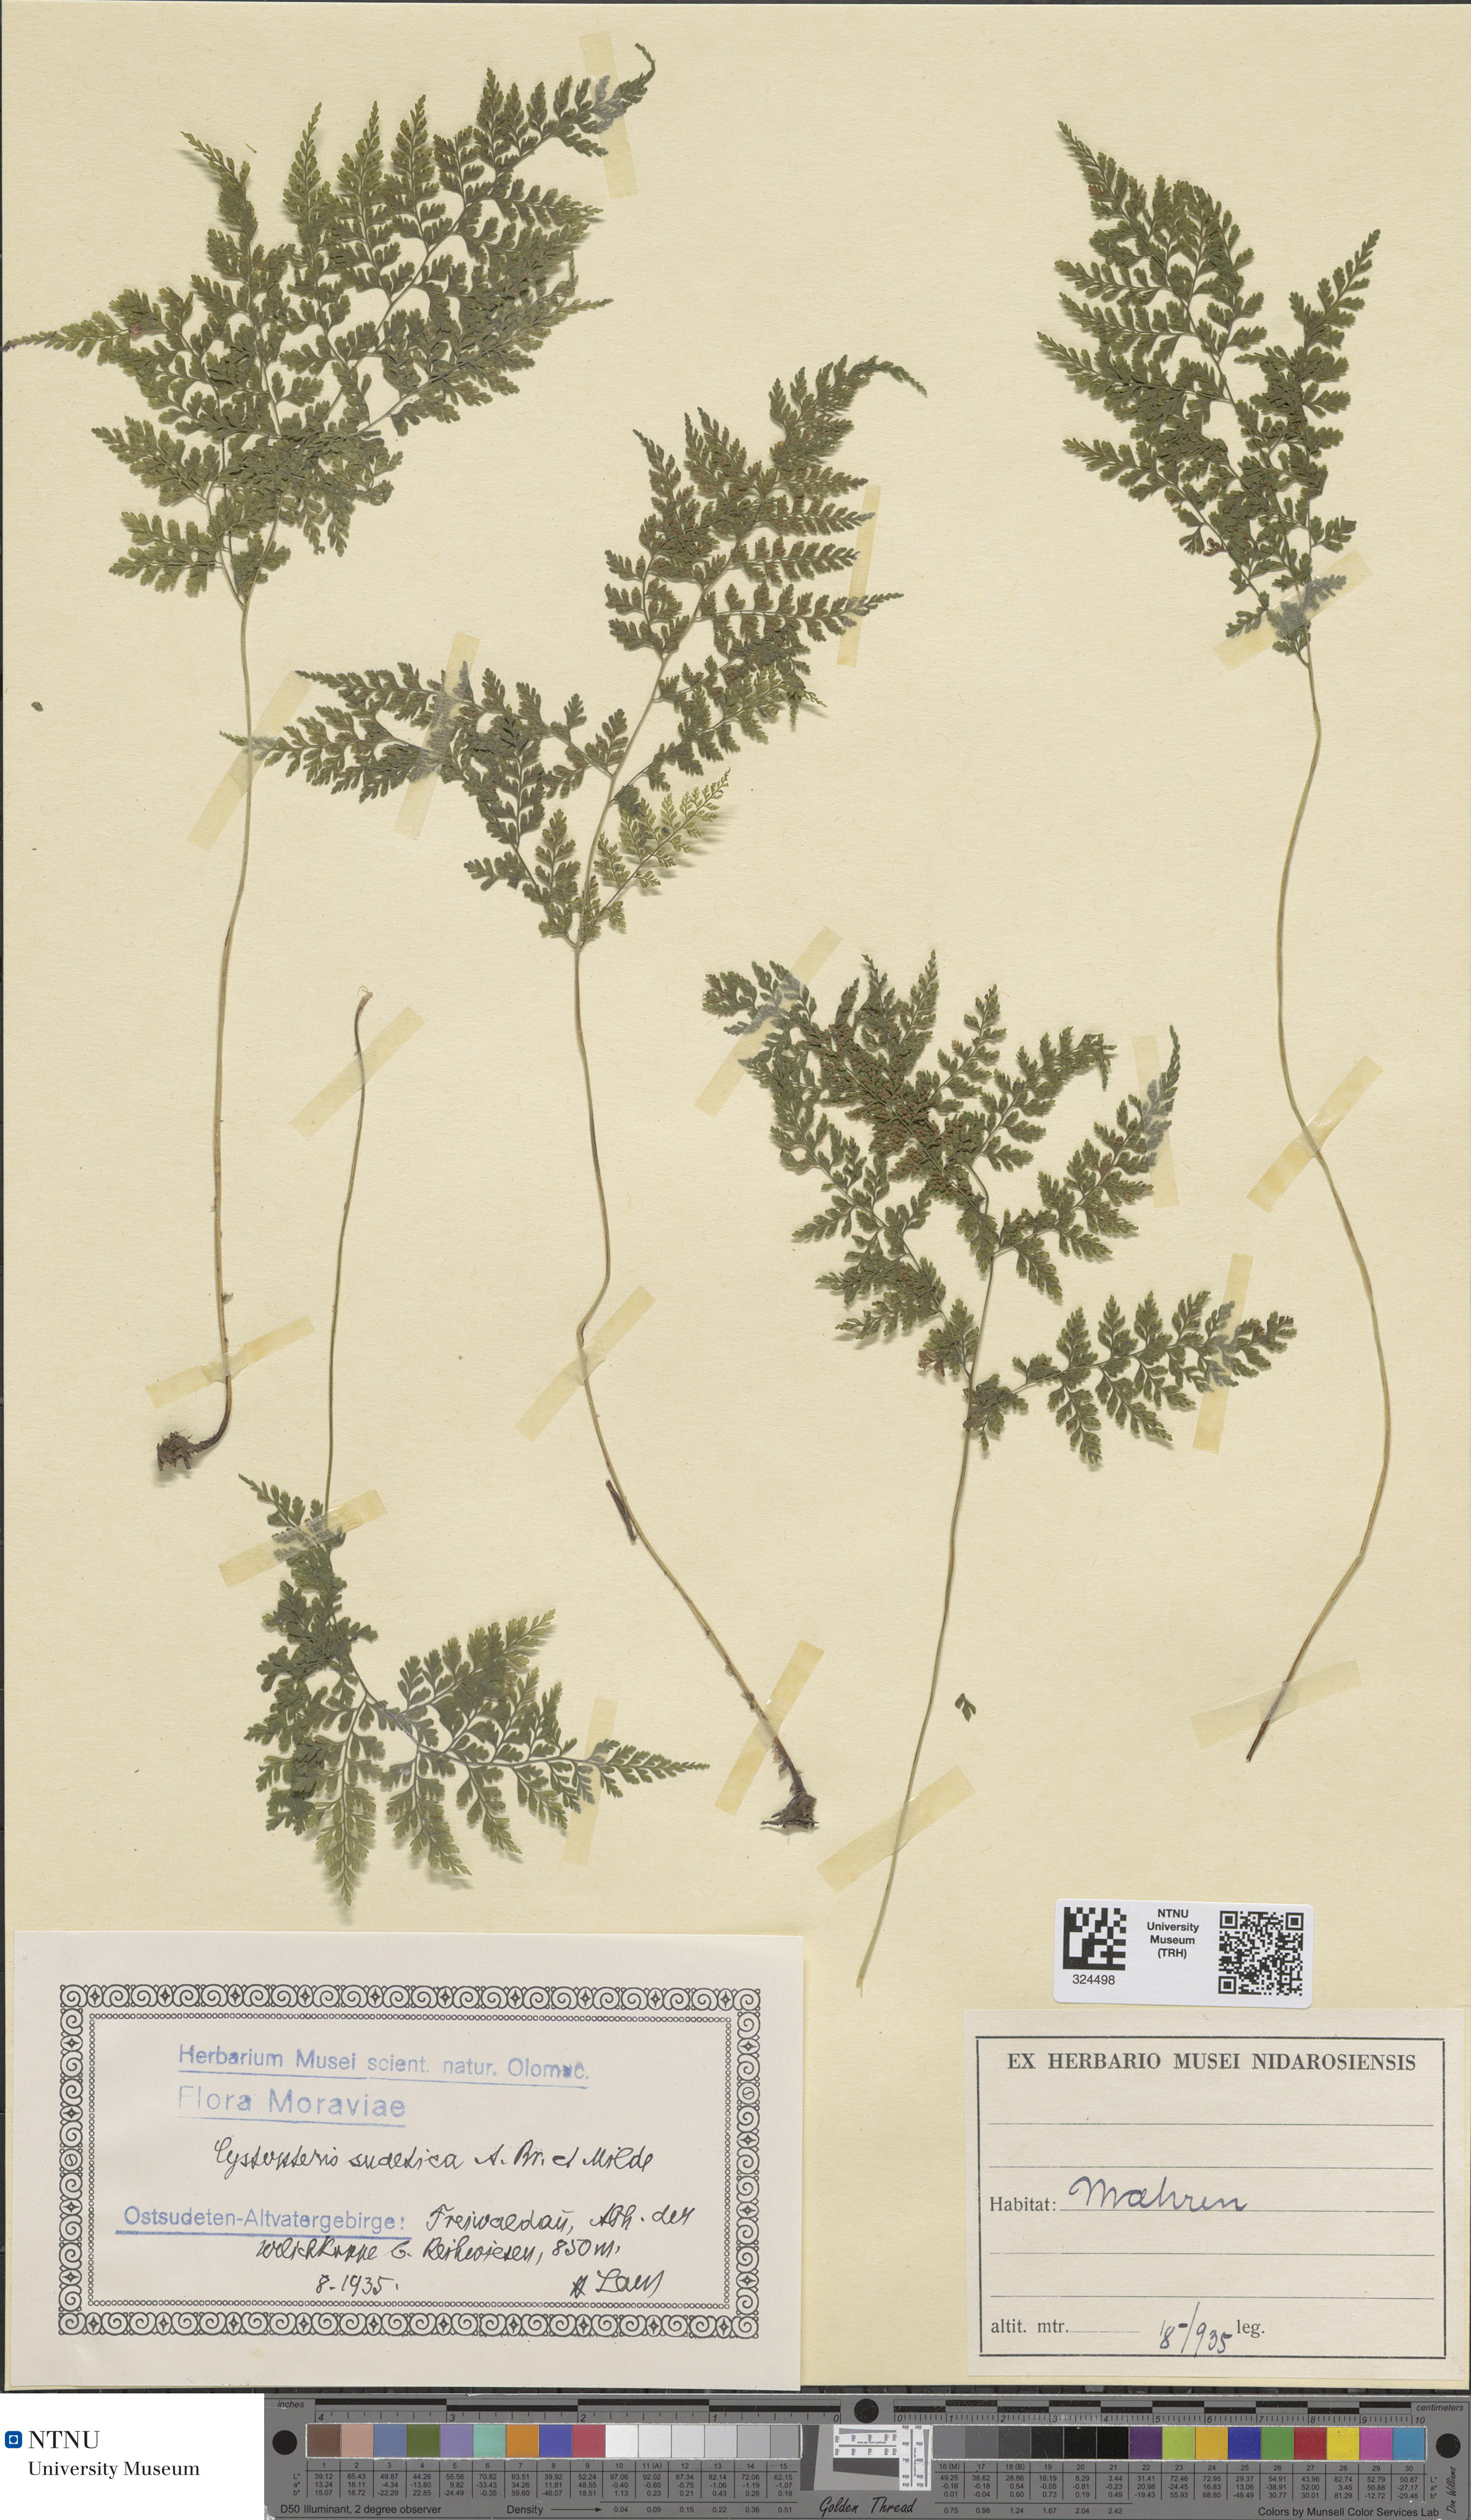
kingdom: Plantae
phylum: Tracheophyta
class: Polypodiopsida
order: Polypodiales
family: Cystopteridaceae
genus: Cystopteris
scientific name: Cystopteris sudetica
